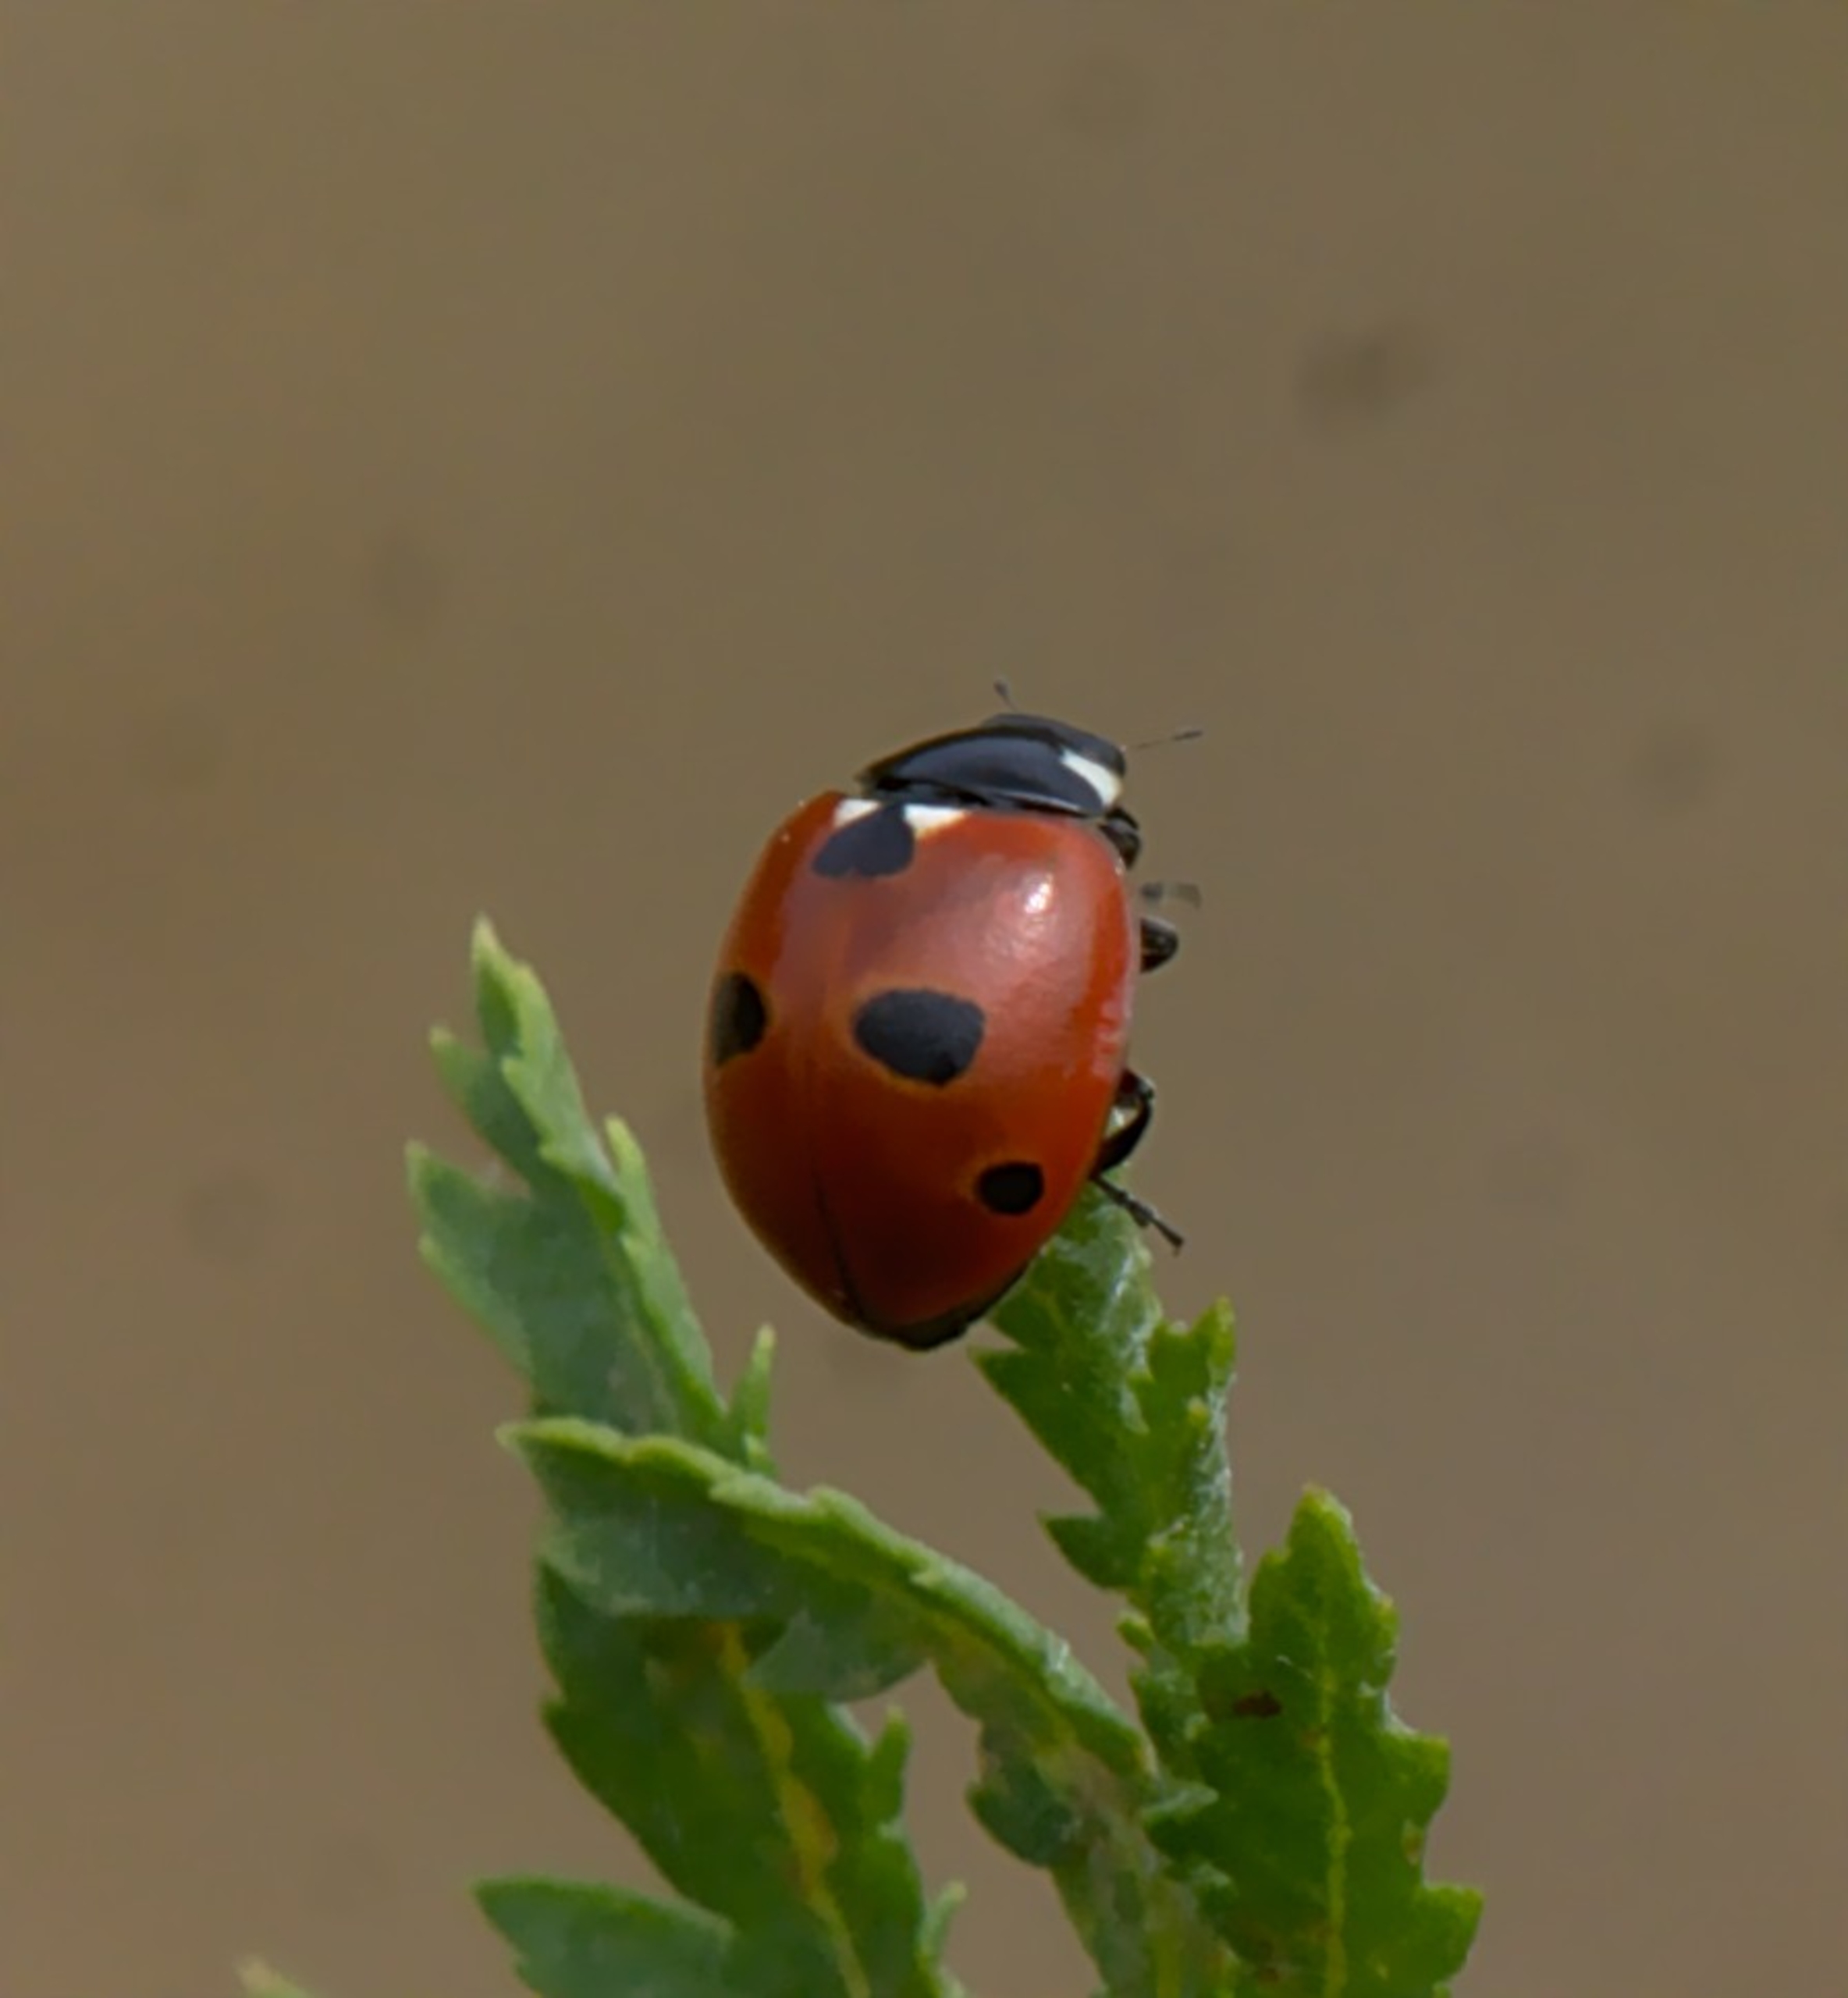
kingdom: Animalia
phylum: Arthropoda
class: Insecta
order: Coleoptera
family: Coccinellidae
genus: Coccinella
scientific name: Coccinella quinquepunctata
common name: Femplettet mariehøne
